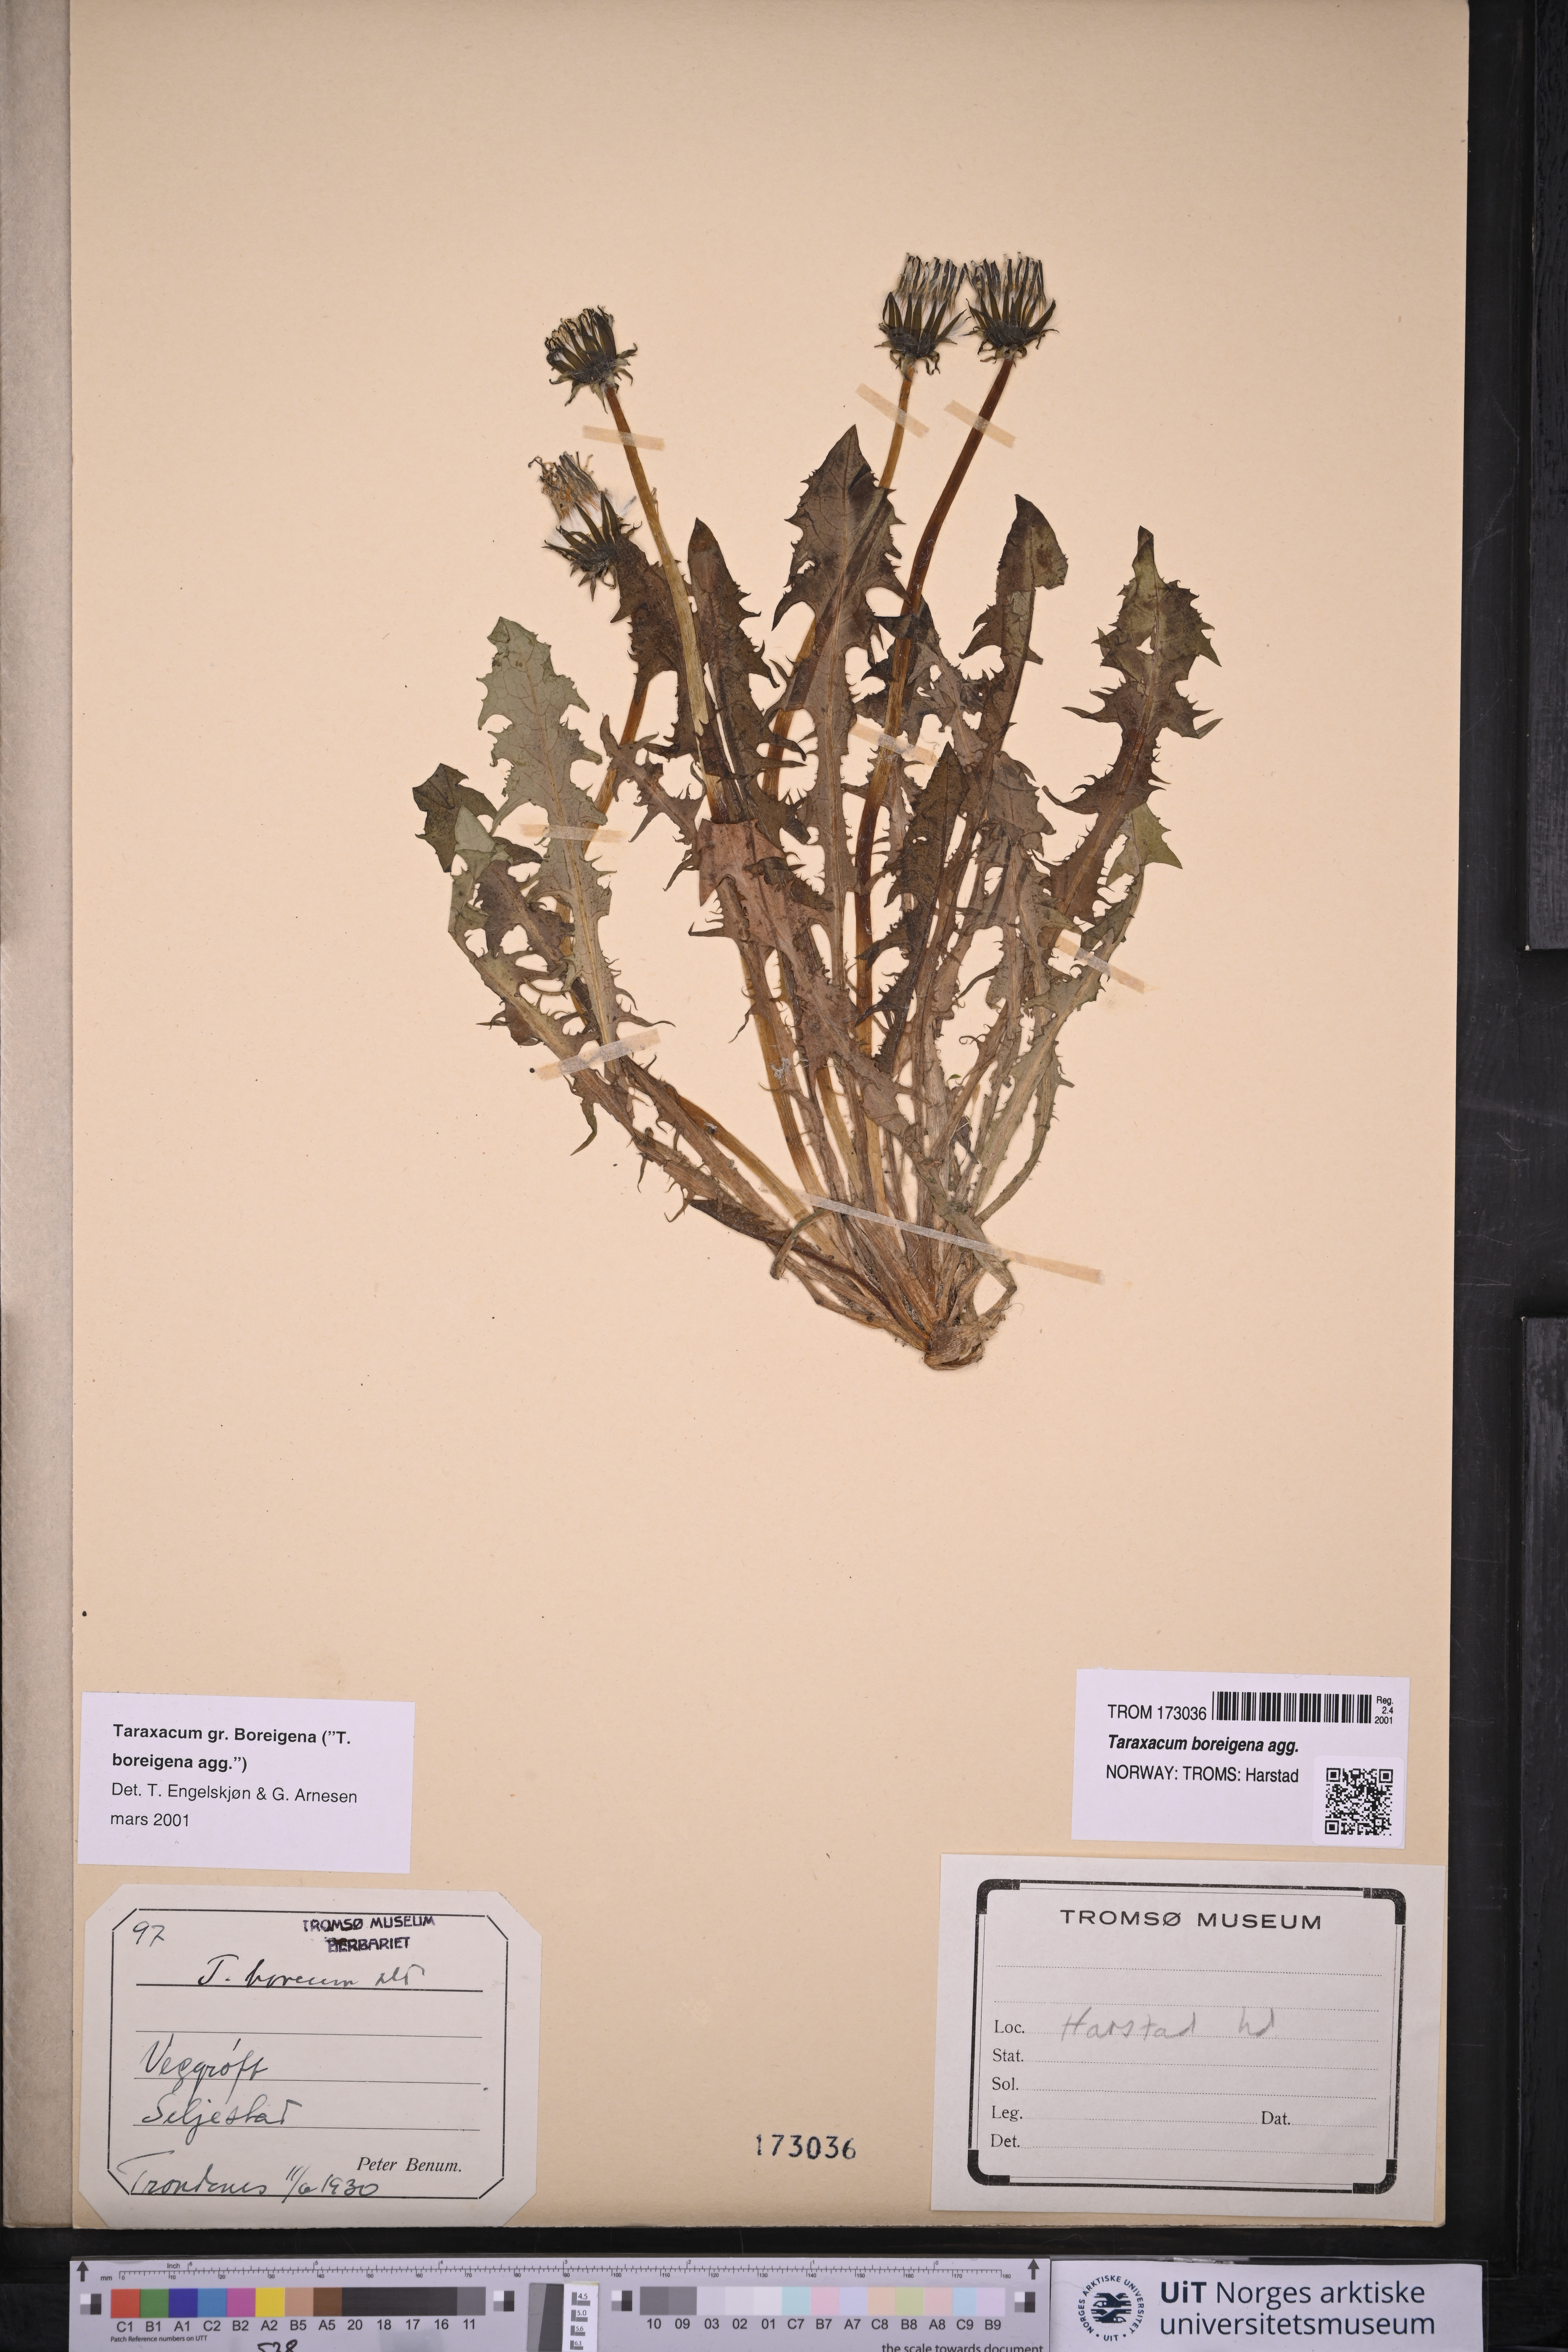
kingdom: Plantae
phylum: Tracheophyta
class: Magnoliopsida
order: Asterales
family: Asteraceae
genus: Taraxacum
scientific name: Taraxacum
